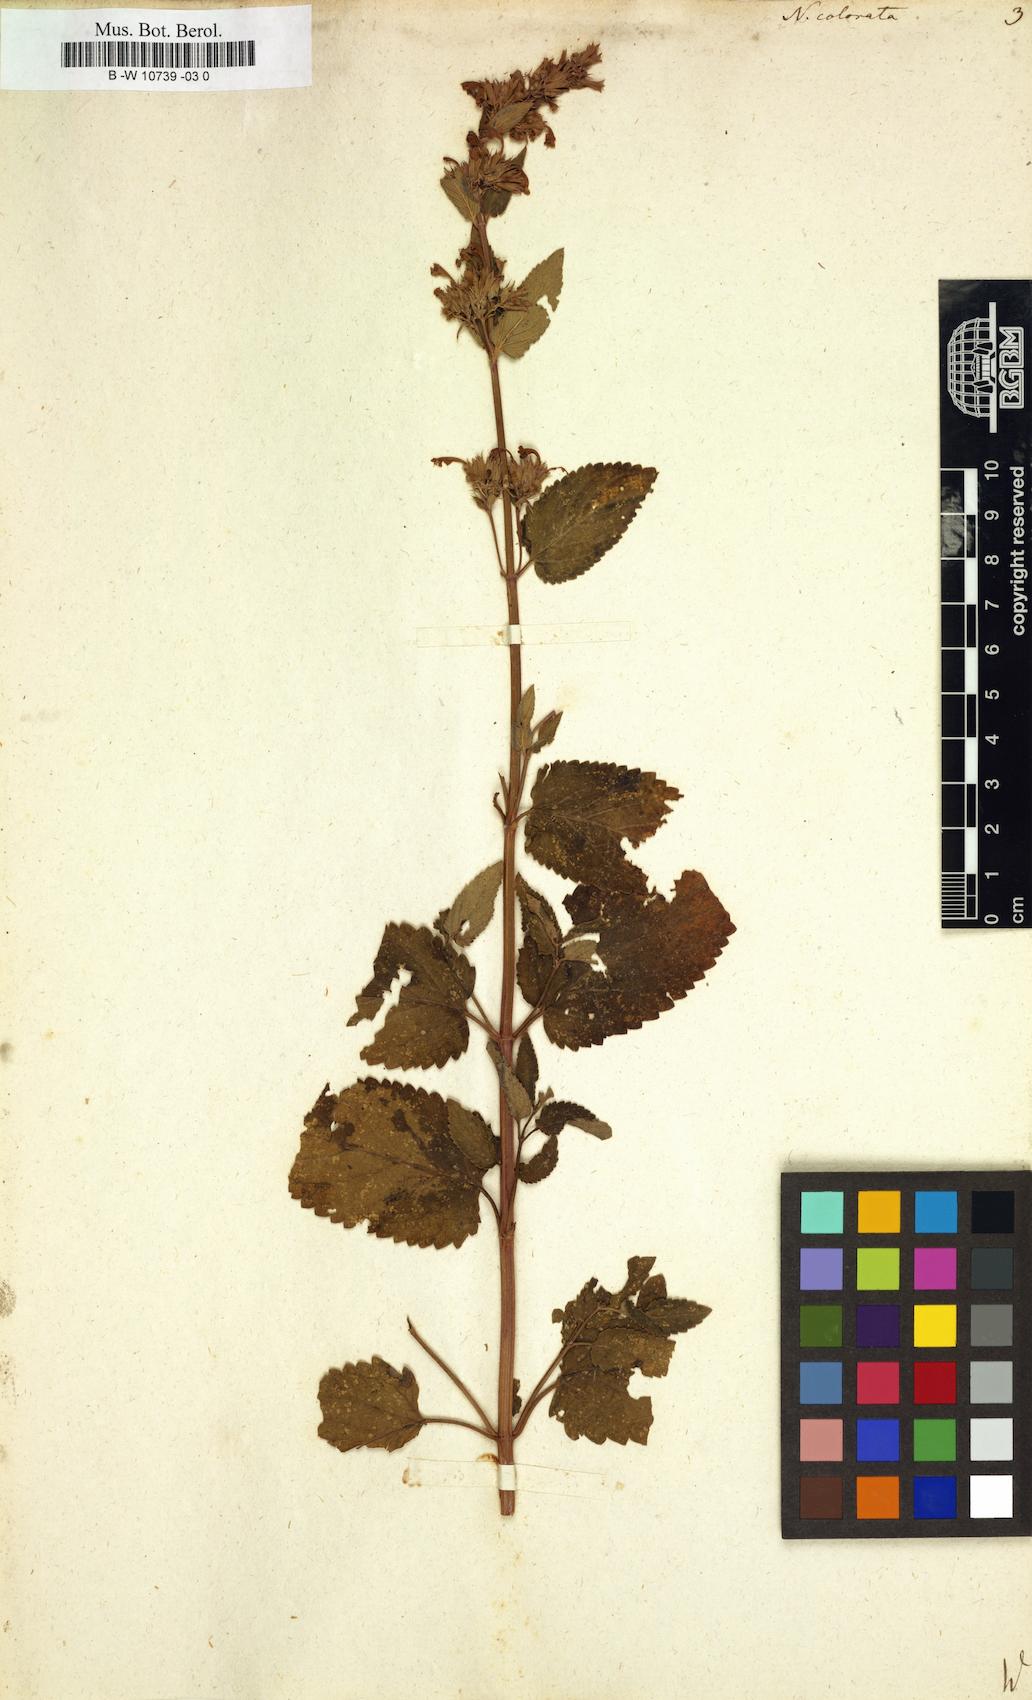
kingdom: Plantae
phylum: Tracheophyta
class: Magnoliopsida
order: Lamiales
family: Lamiaceae
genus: Nepeta
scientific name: Nepeta grandiflora
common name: Caucasus catmint
